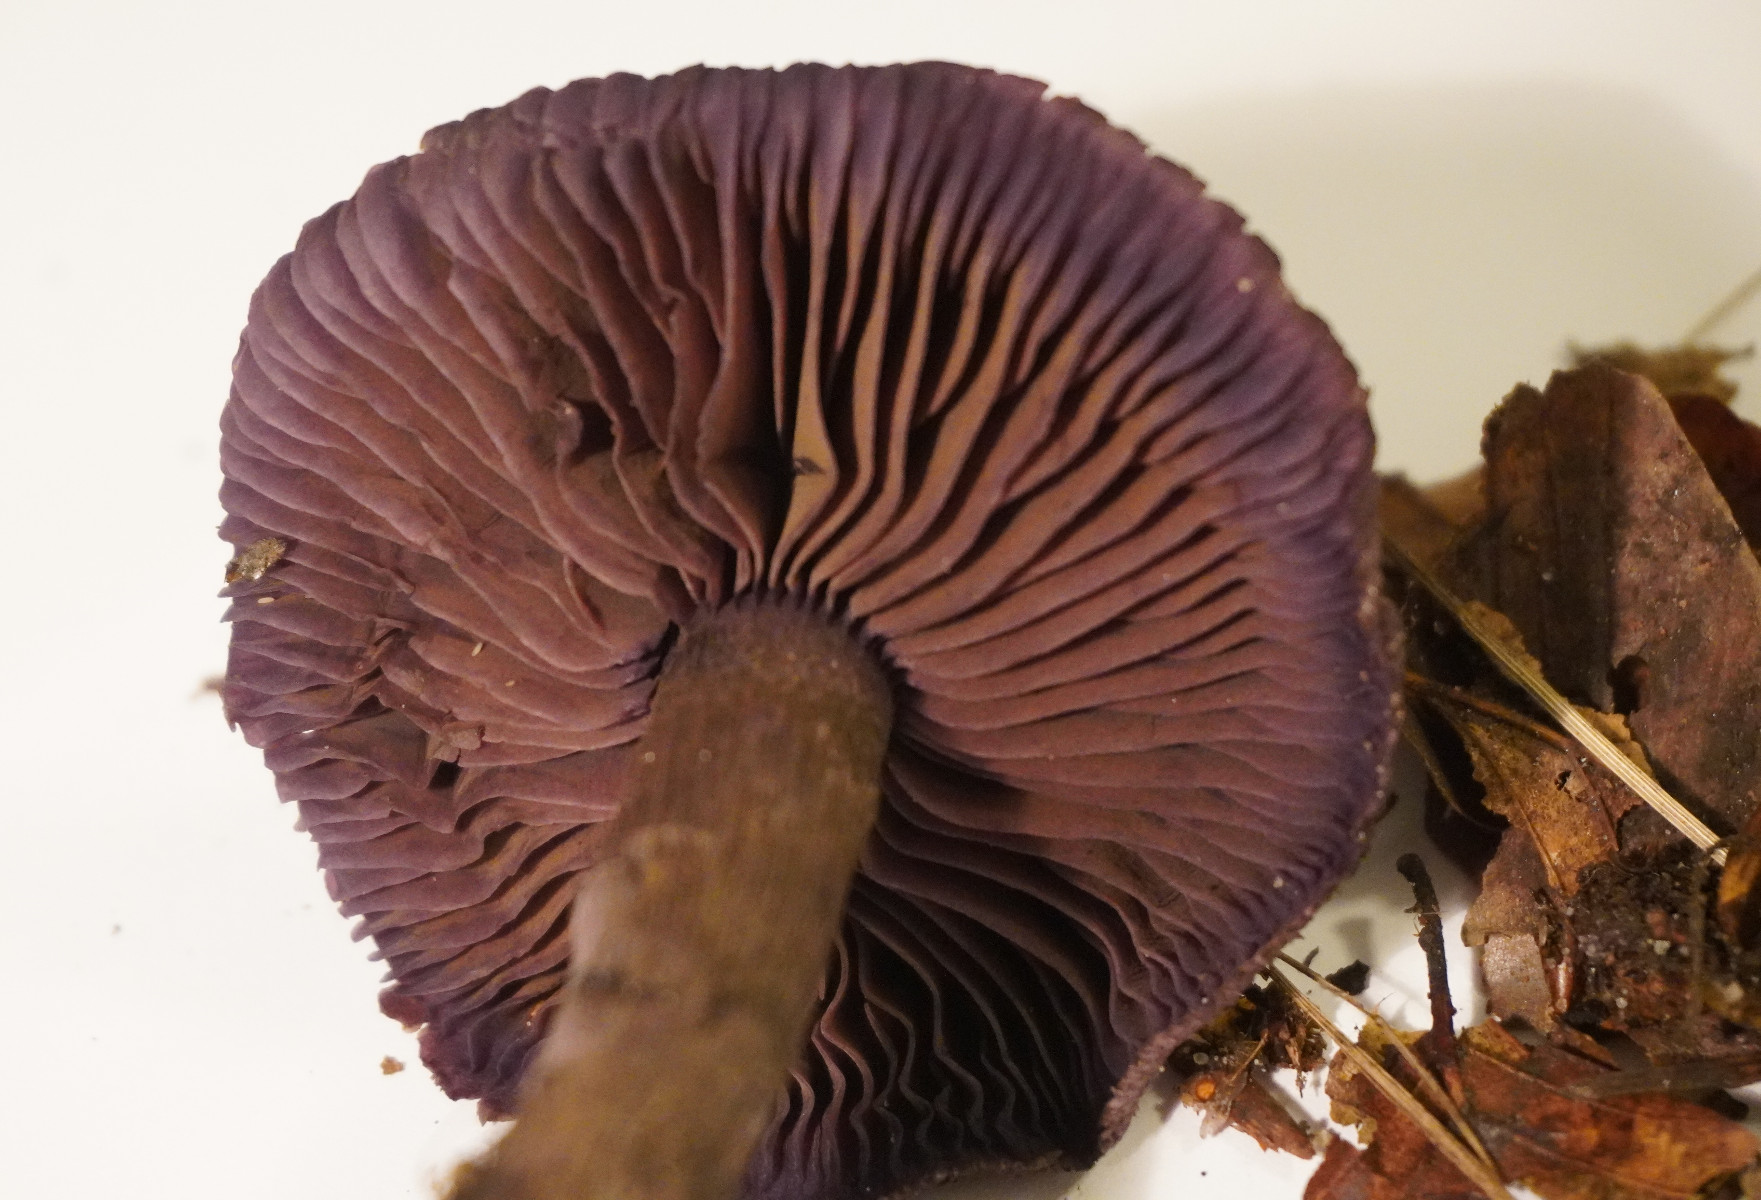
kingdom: Fungi
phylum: Basidiomycota
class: Agaricomycetes
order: Agaricales
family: Cortinariaceae
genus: Cortinarius
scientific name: Cortinarius violaceus
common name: mørkviolet slørhat
